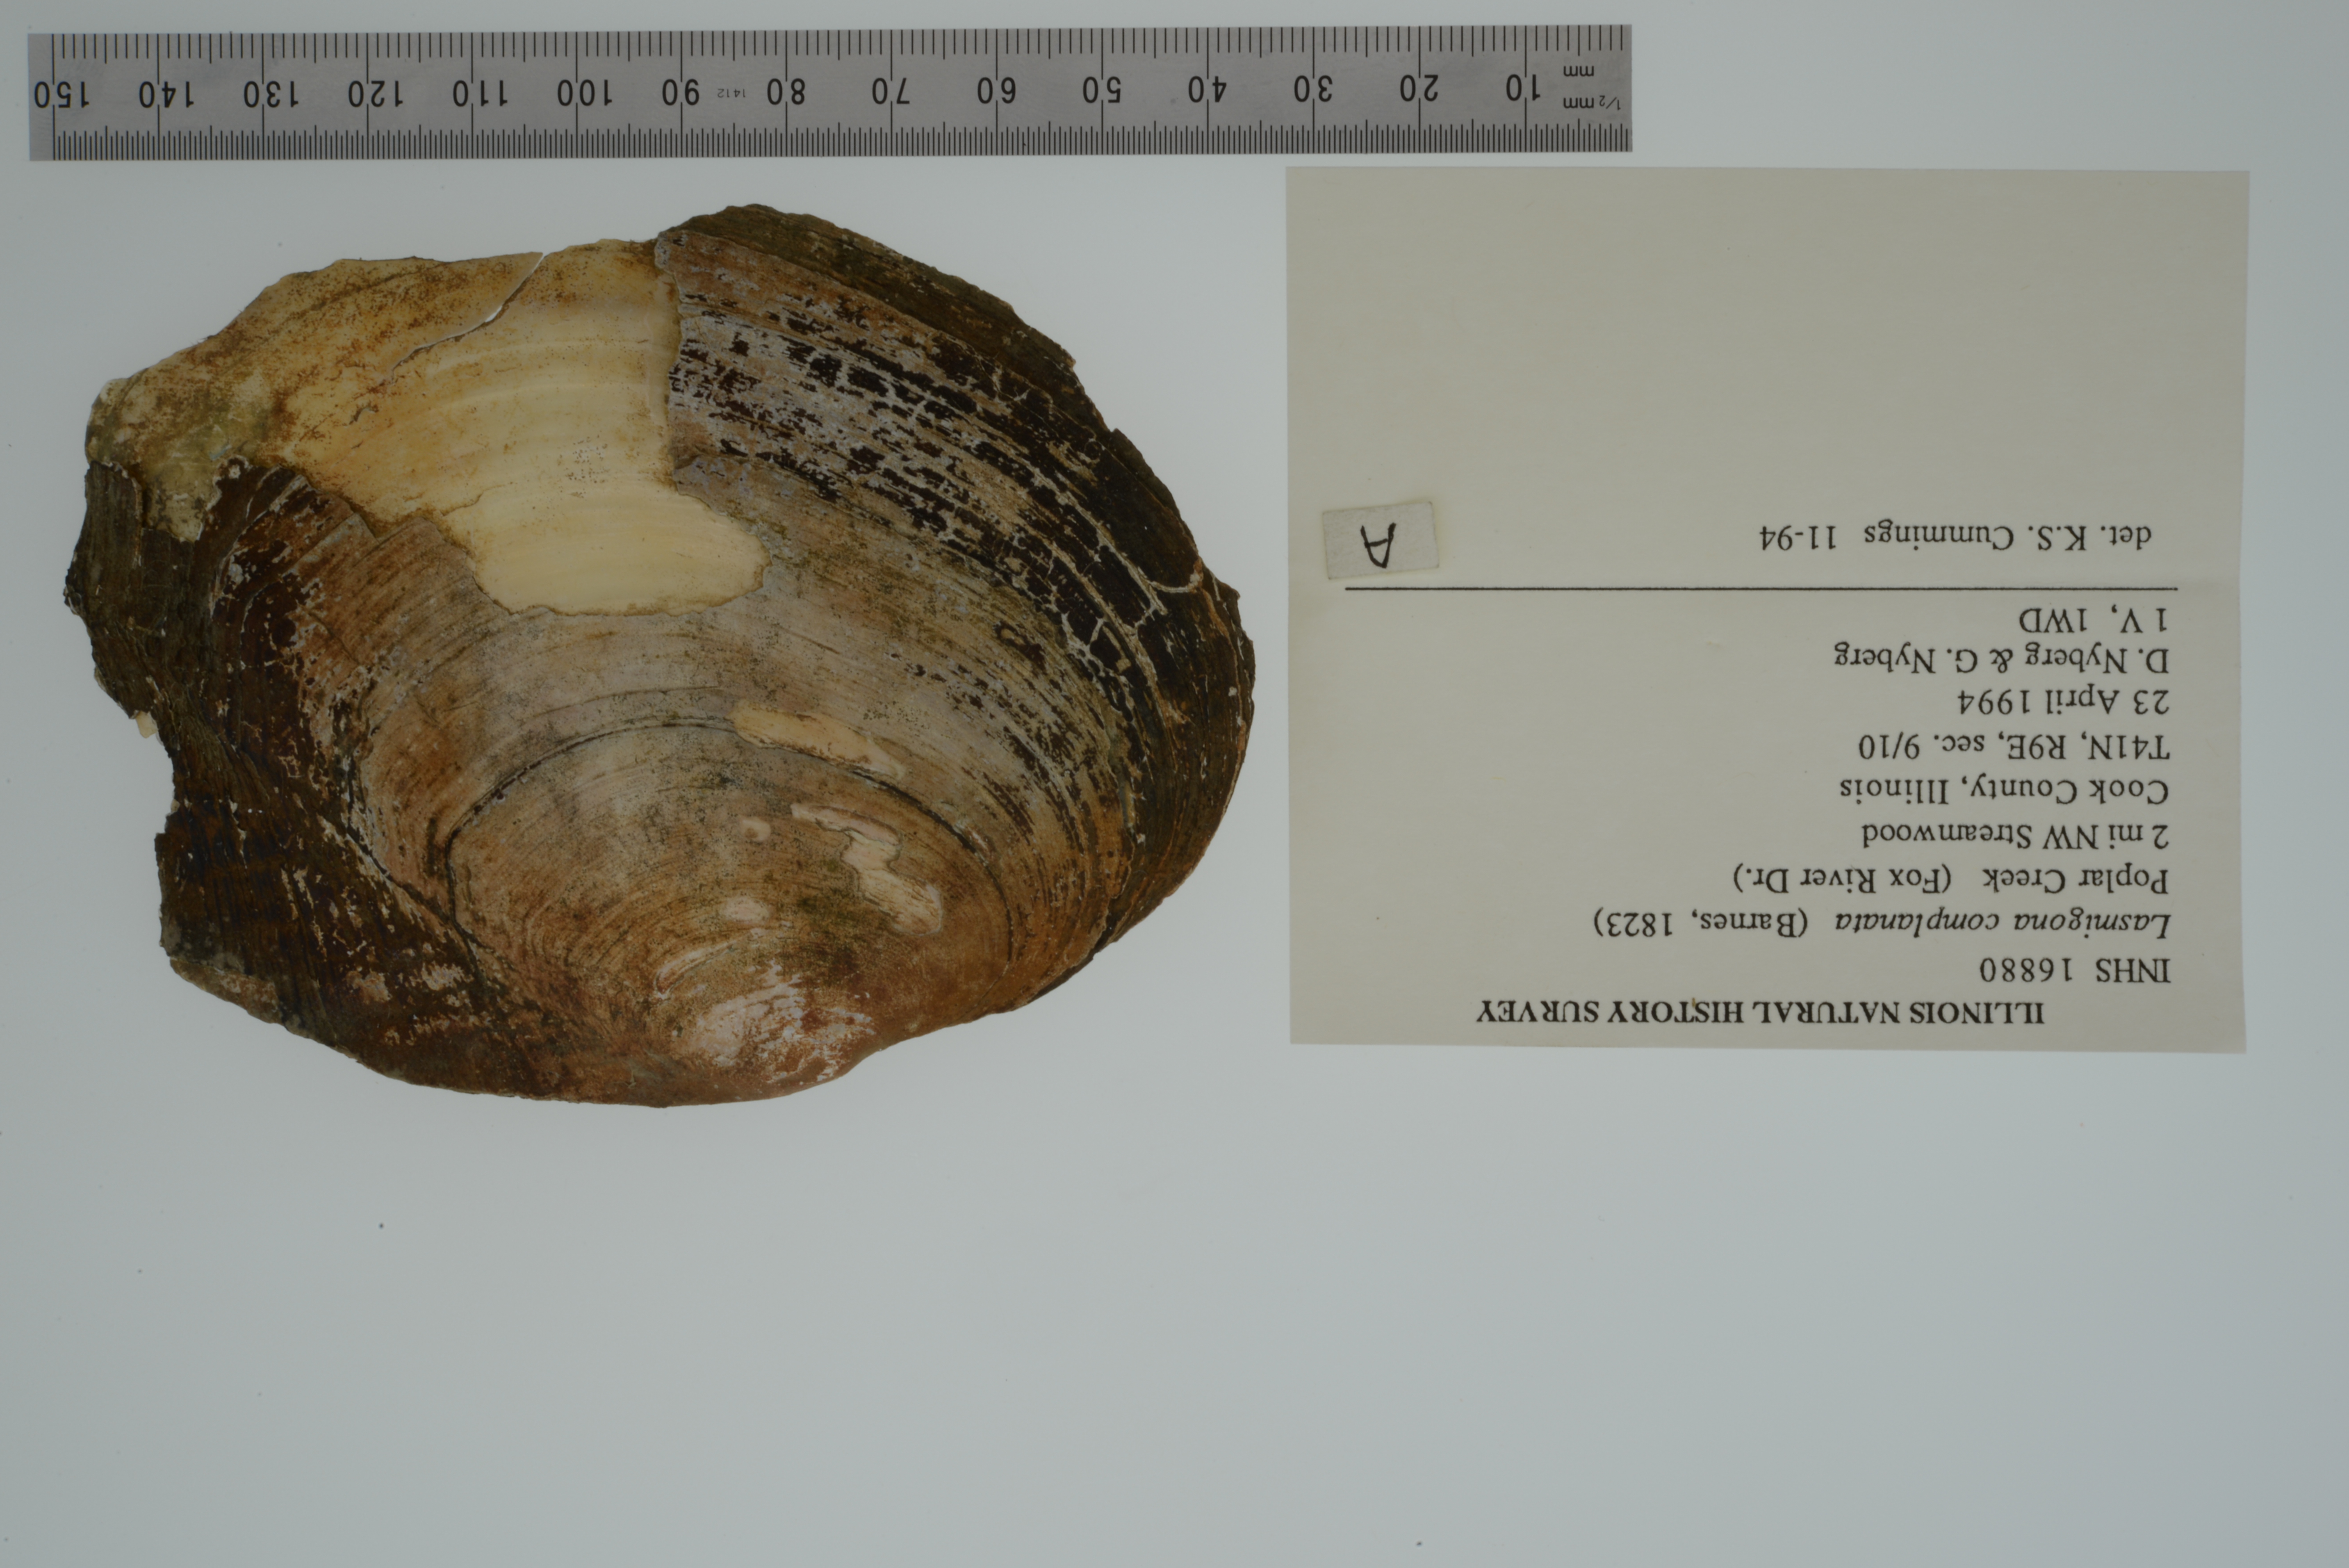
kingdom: Animalia
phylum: Mollusca
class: Bivalvia
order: Unionida
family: Unionidae
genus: Lasmigona
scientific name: Lasmigona complanata
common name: White heelsplitter
